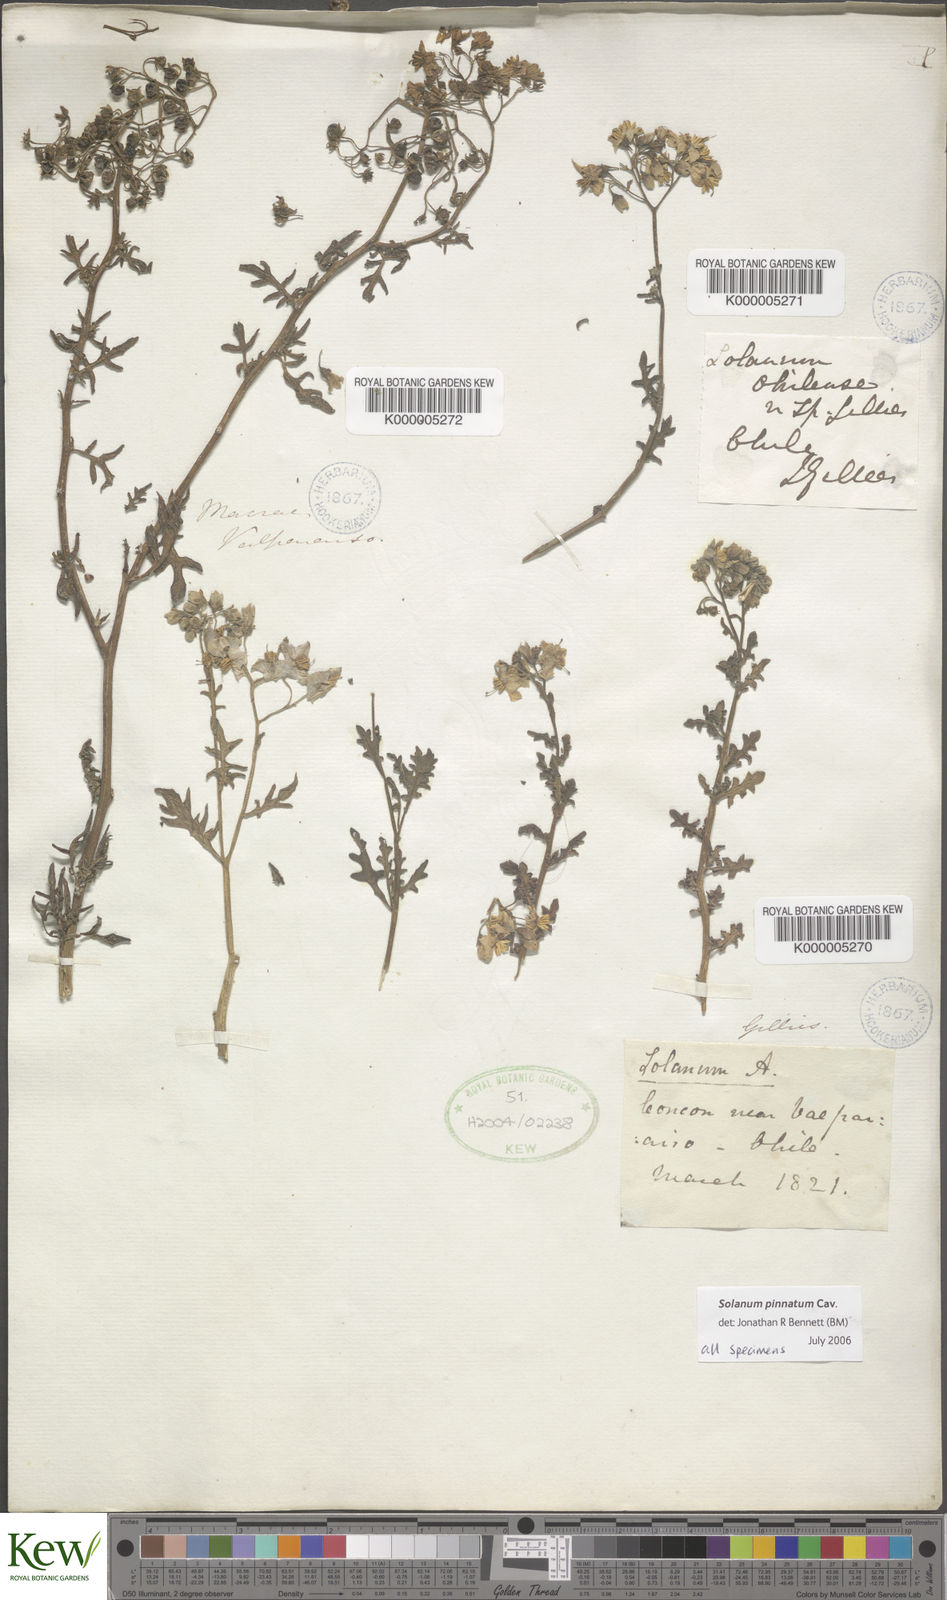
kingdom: Plantae
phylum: Tracheophyta
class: Magnoliopsida
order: Solanales
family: Solanaceae
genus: Solanum
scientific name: Solanum pinnatum
